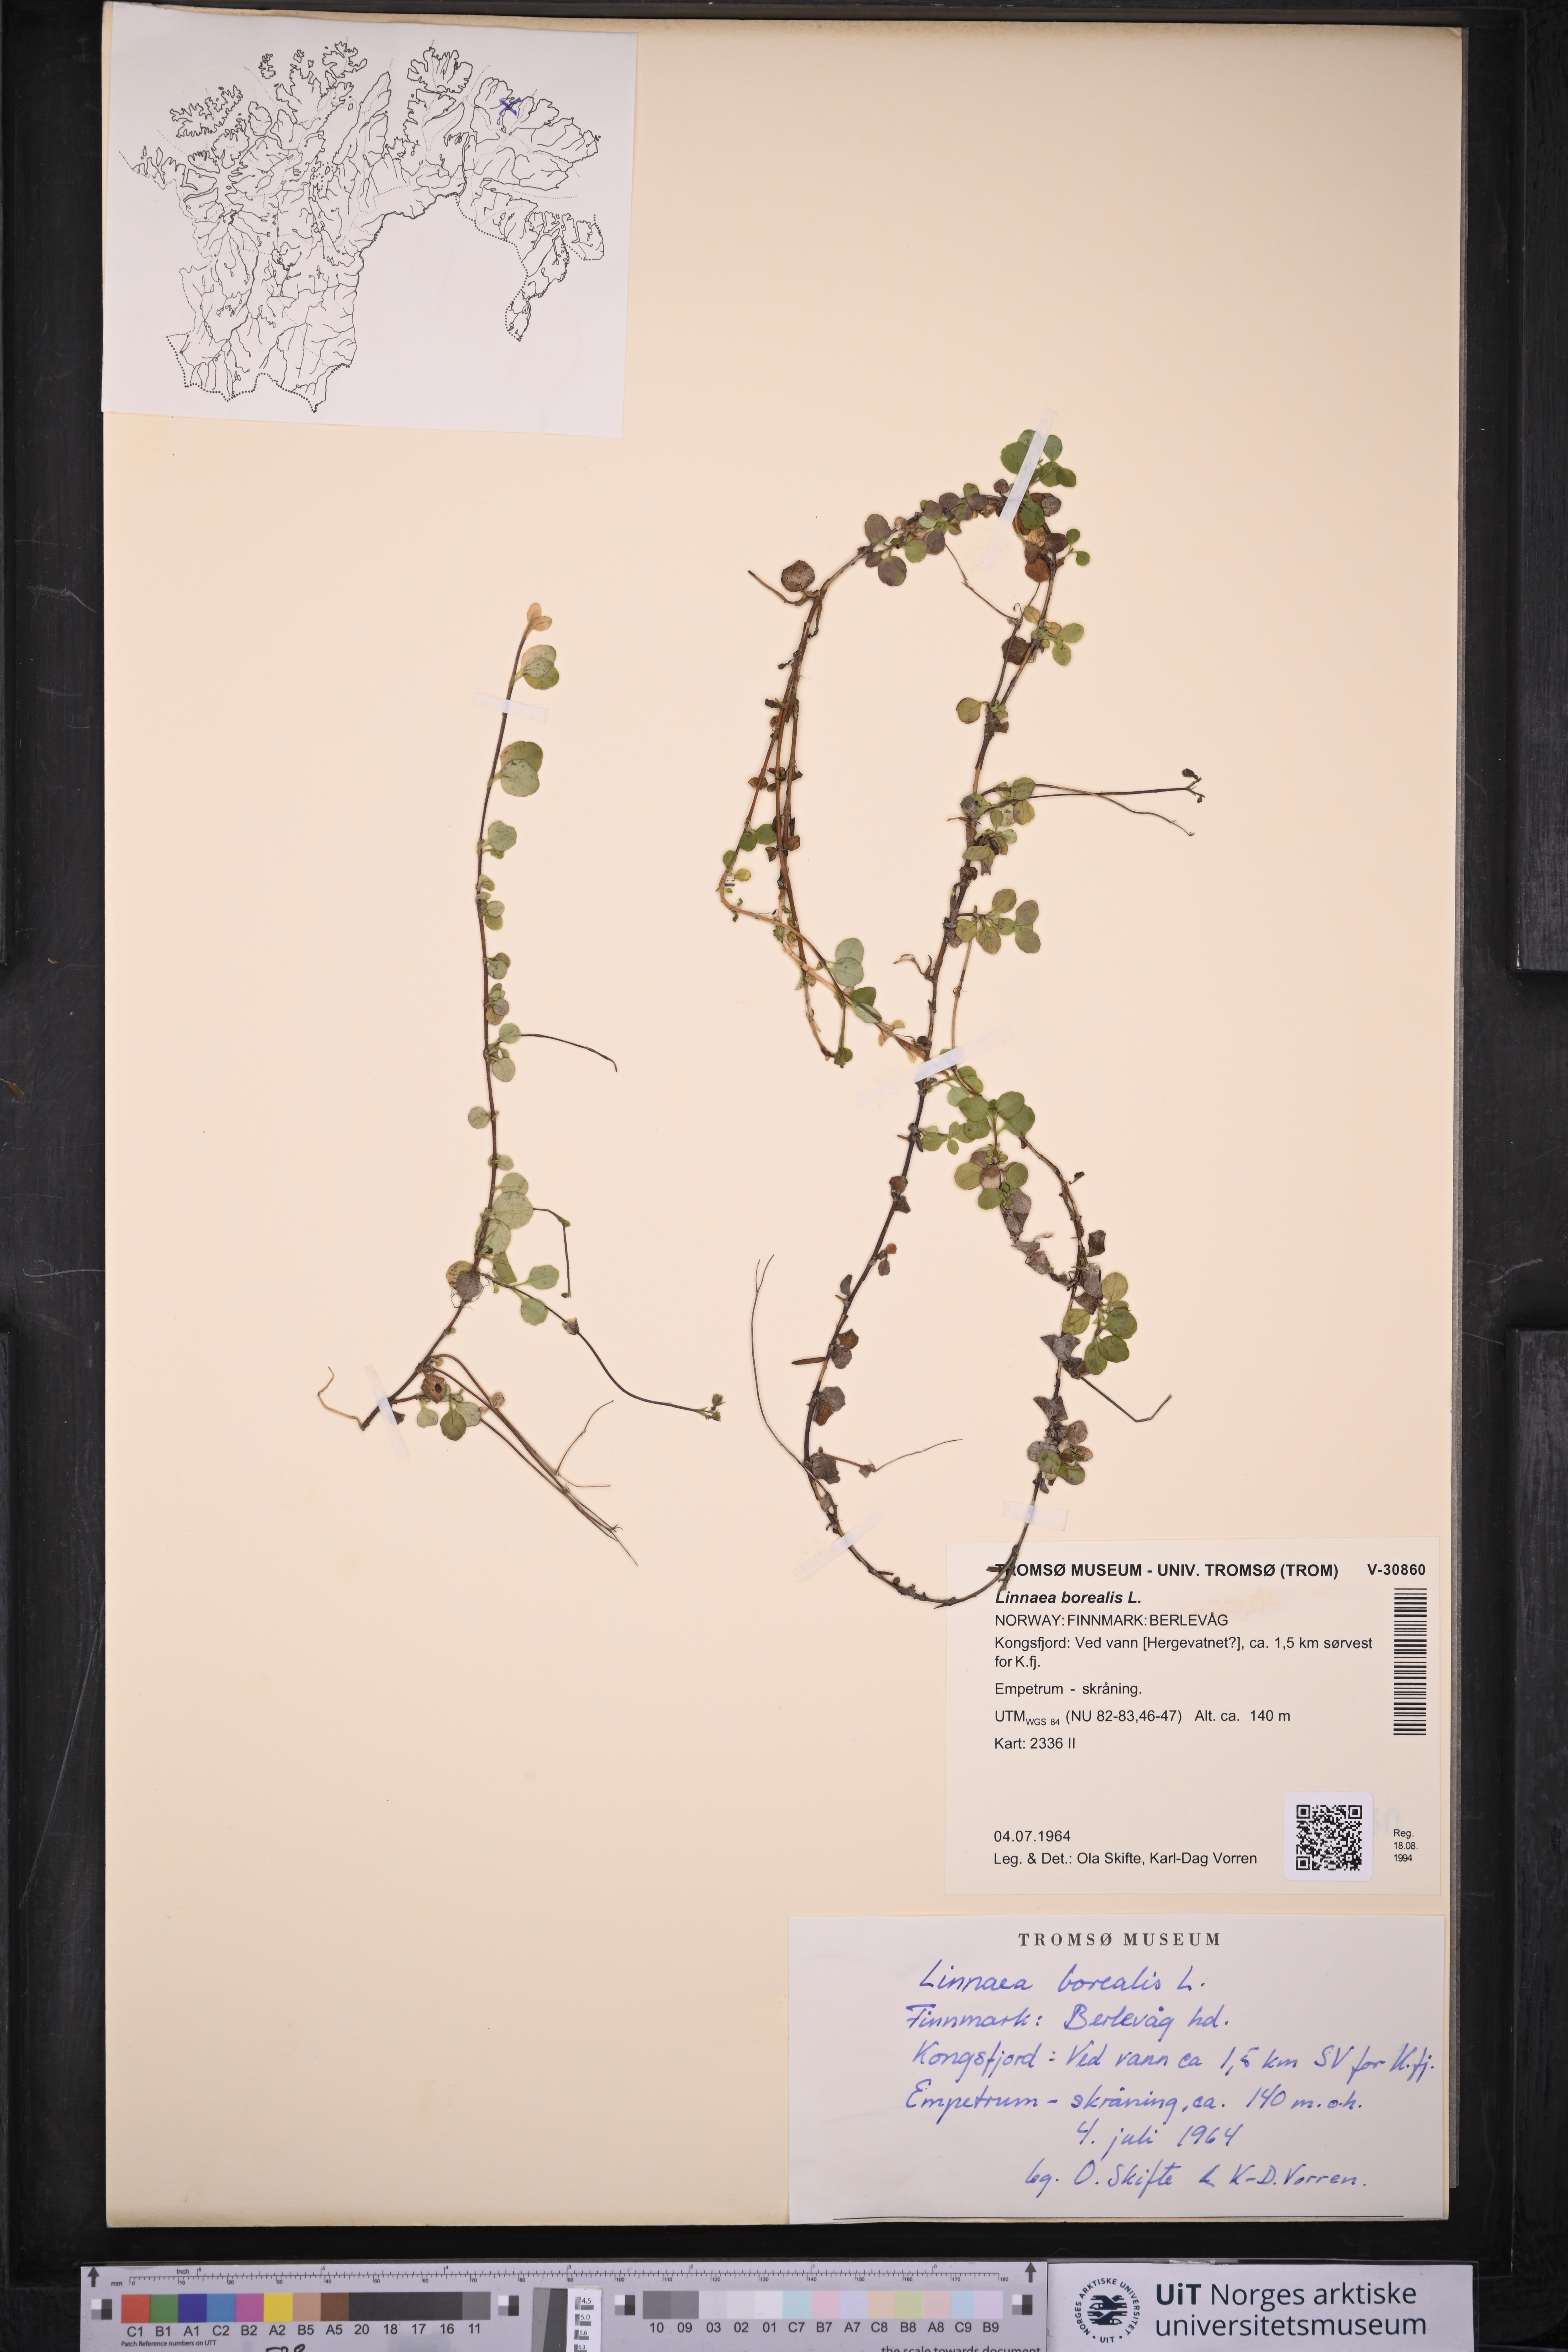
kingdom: Plantae
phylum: Tracheophyta
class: Magnoliopsida
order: Dipsacales
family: Caprifoliaceae
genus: Linnaea
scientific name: Linnaea borealis
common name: Twinflower
